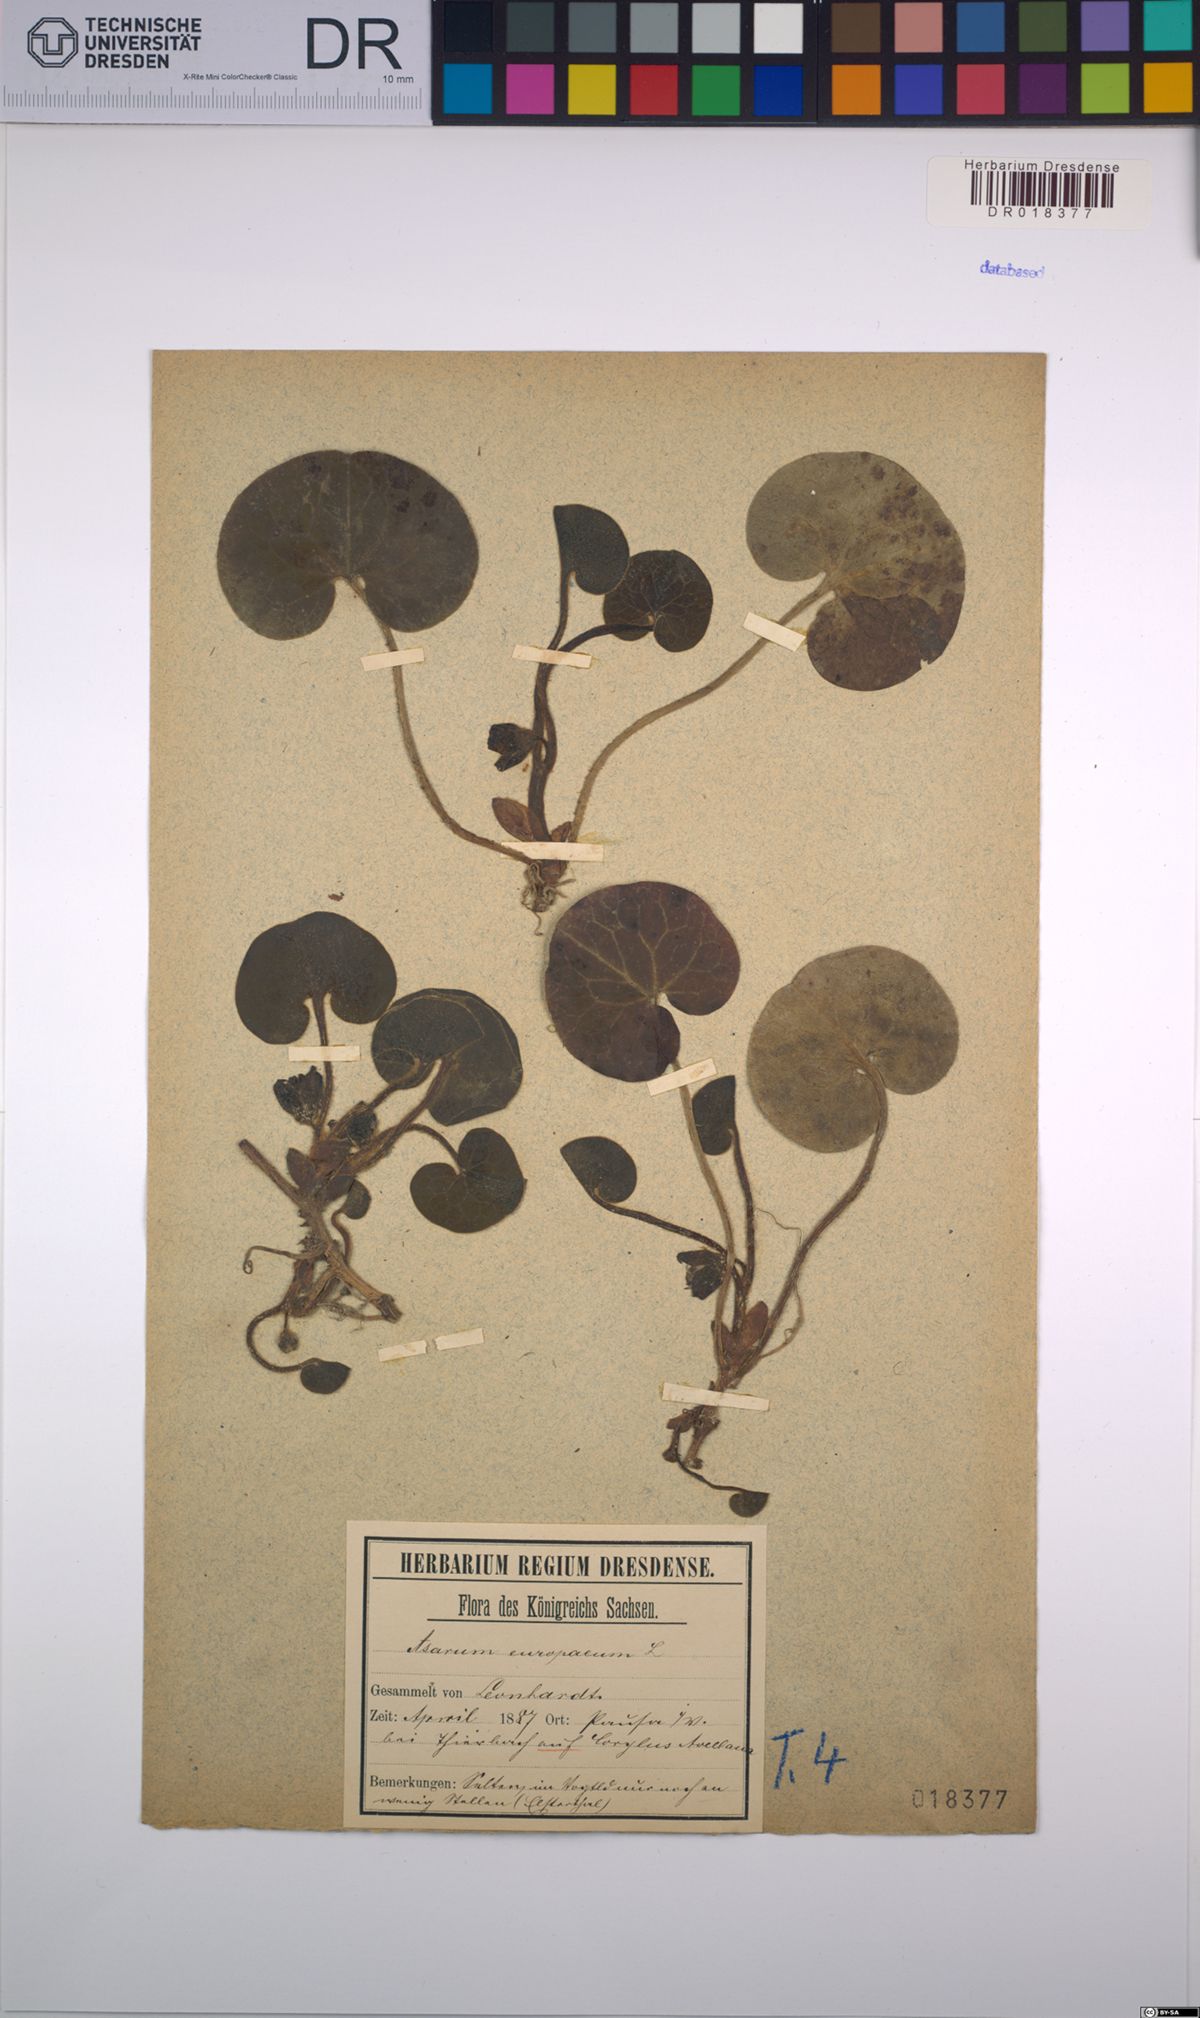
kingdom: Plantae
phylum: Tracheophyta
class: Magnoliopsida
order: Piperales
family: Aristolochiaceae
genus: Asarum
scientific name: Asarum europaeum
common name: Asarabacca
